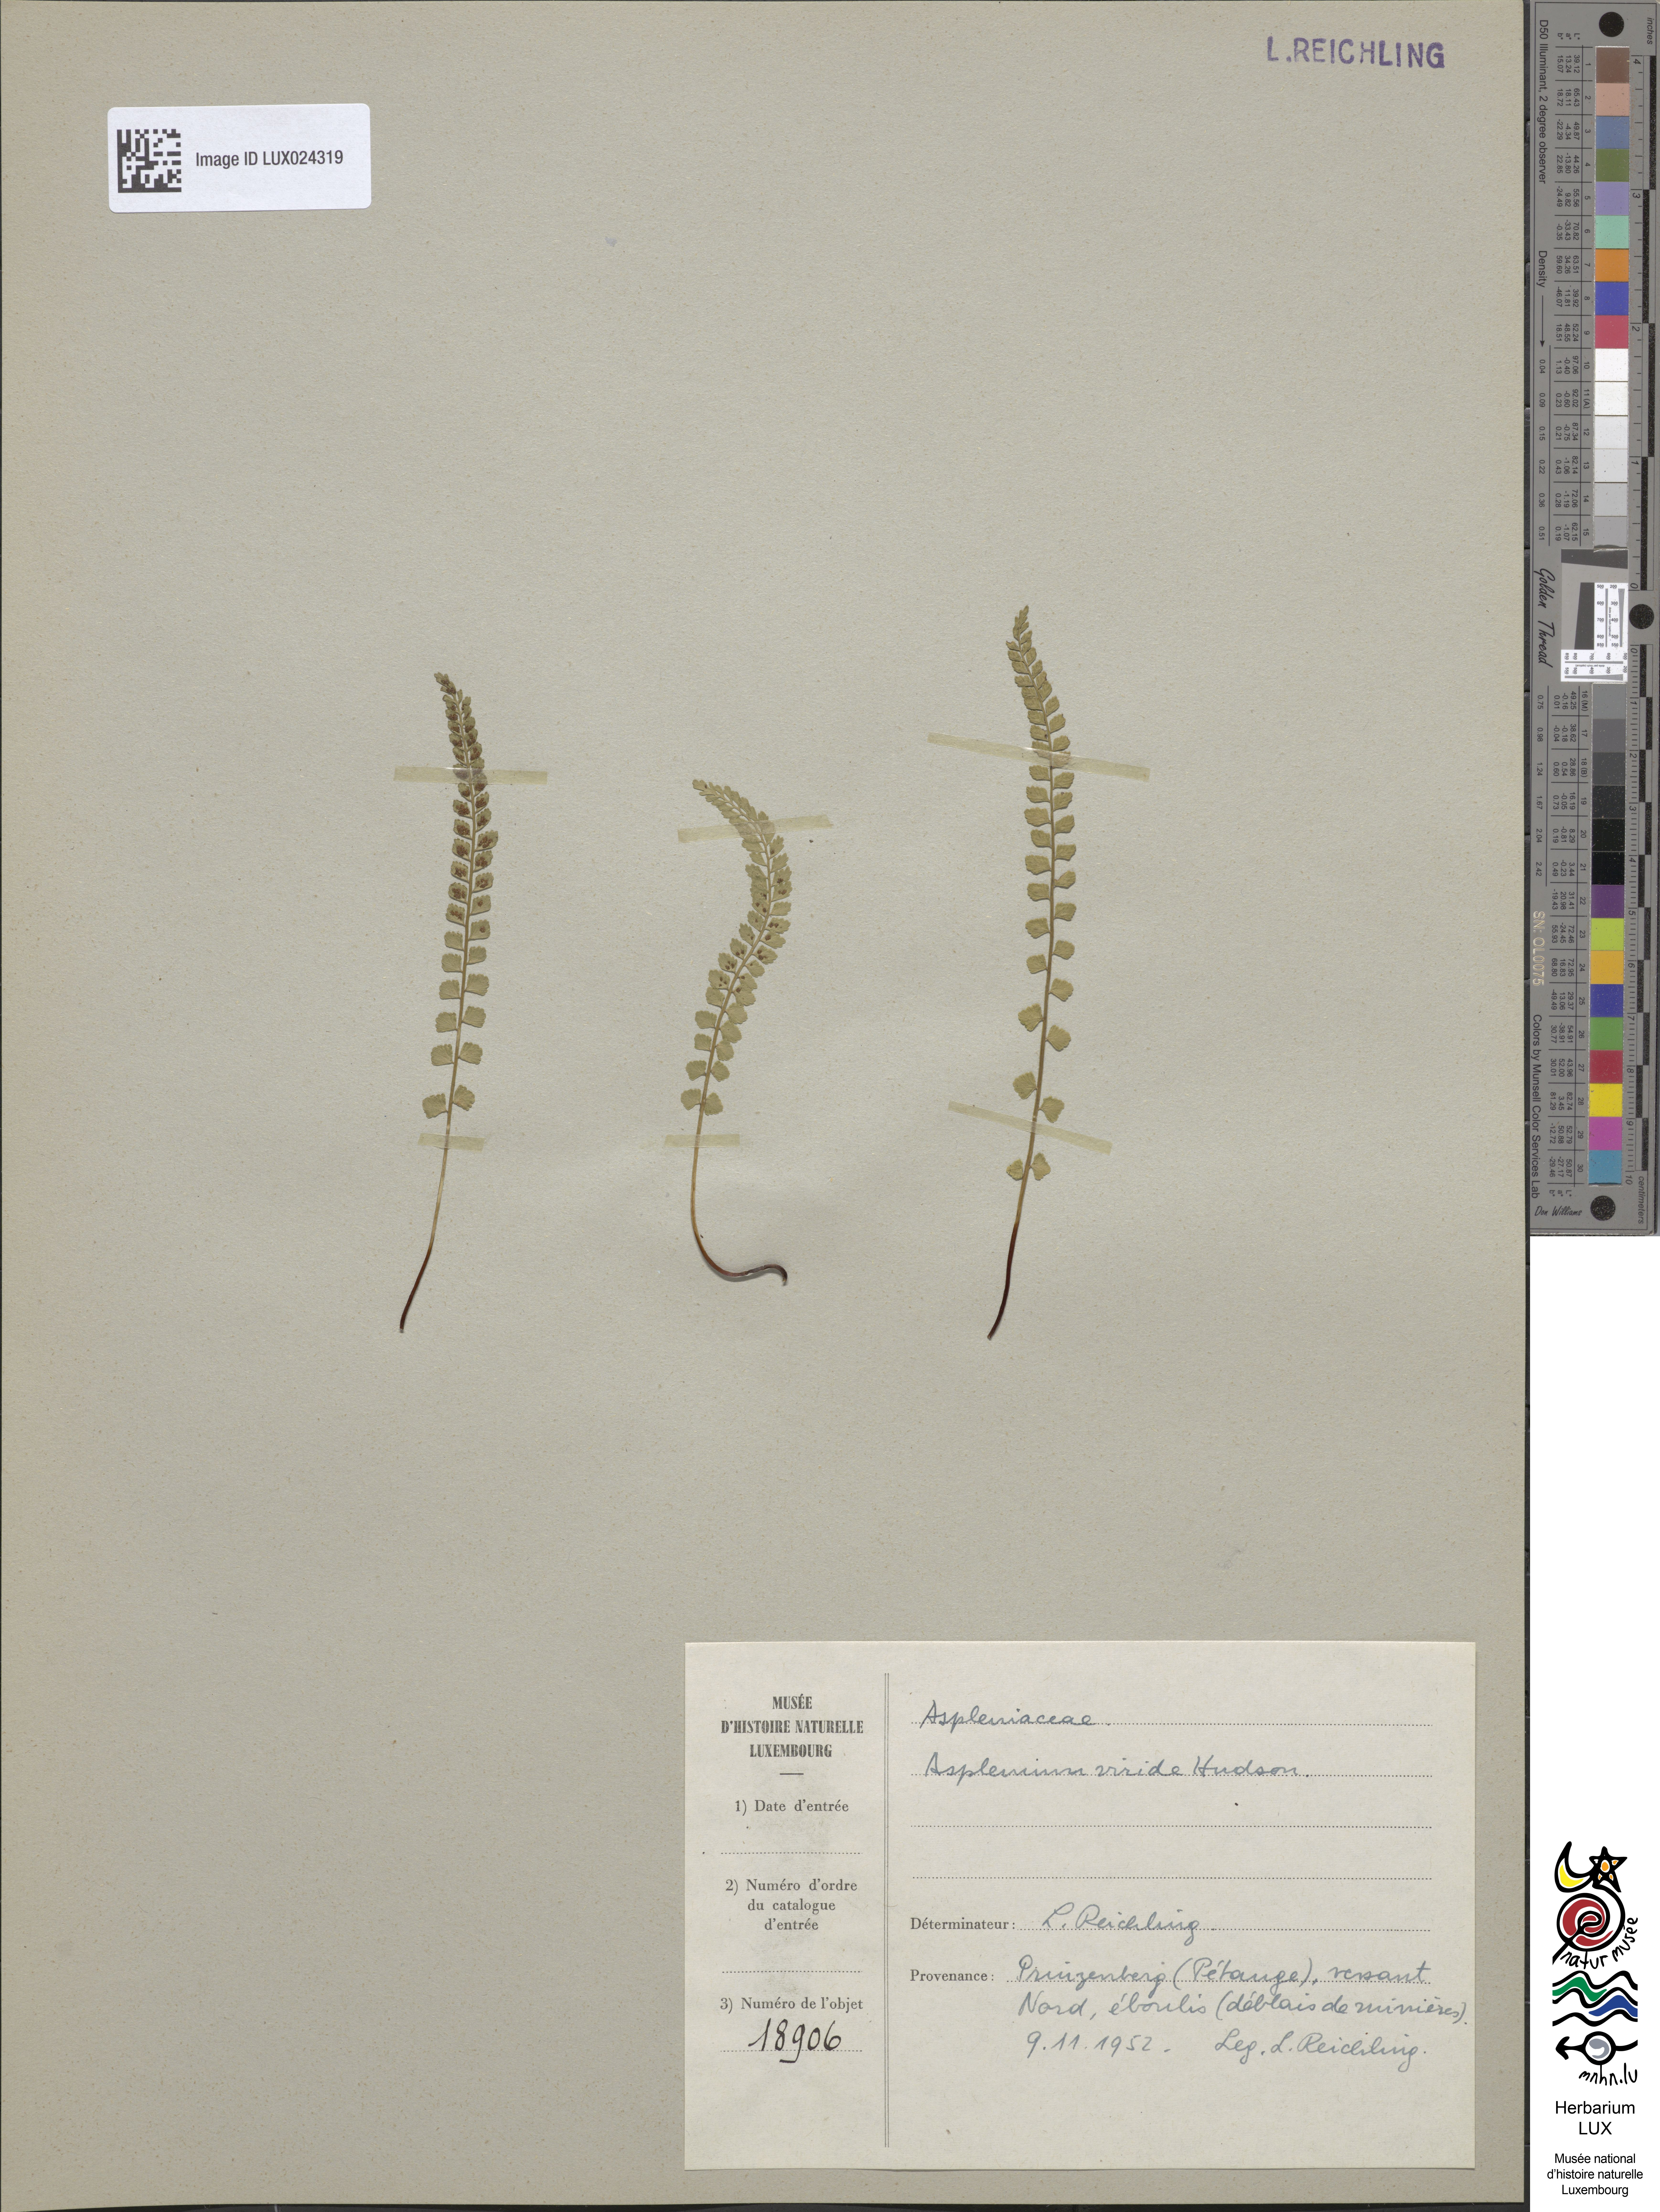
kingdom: Plantae
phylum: Tracheophyta
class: Polypodiopsida
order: Polypodiales
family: Aspleniaceae
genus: Asplenium
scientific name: Asplenium viride
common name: Green spleenwort
